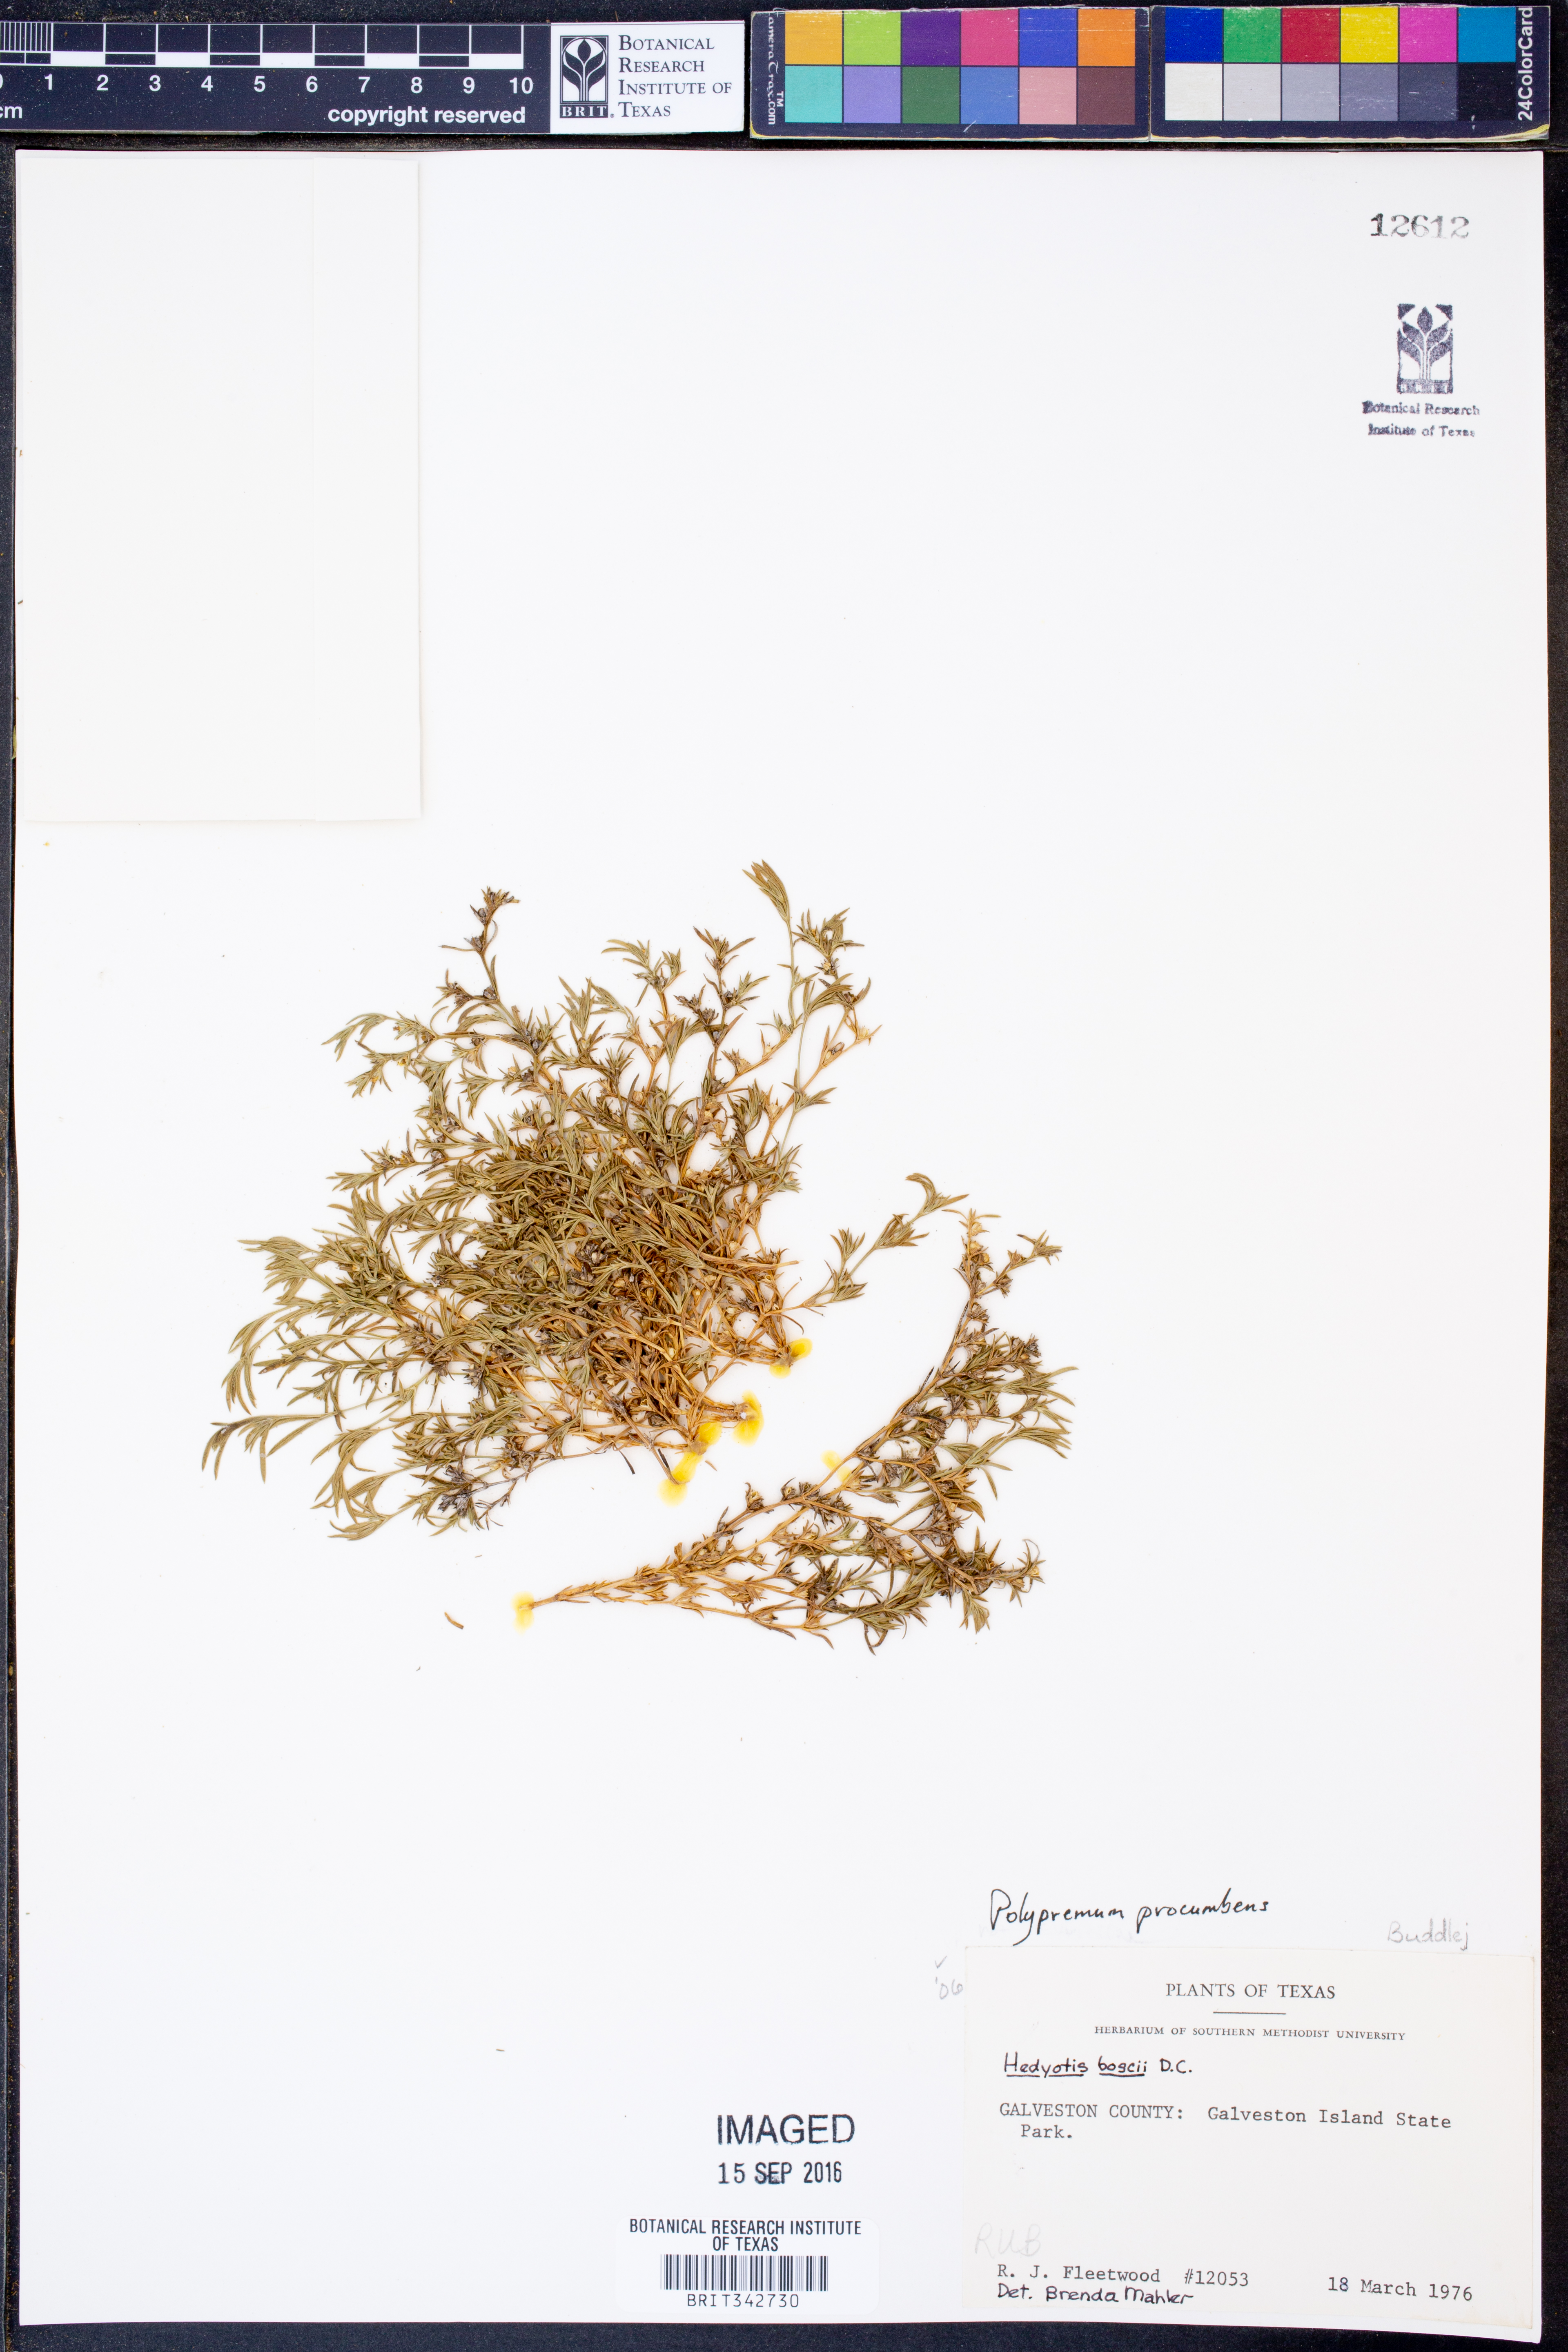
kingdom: Plantae
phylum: Tracheophyta
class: Magnoliopsida
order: Lamiales
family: Tetrachondraceae
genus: Polypremum
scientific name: Polypremum procumbens
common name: Juniper-leaf
